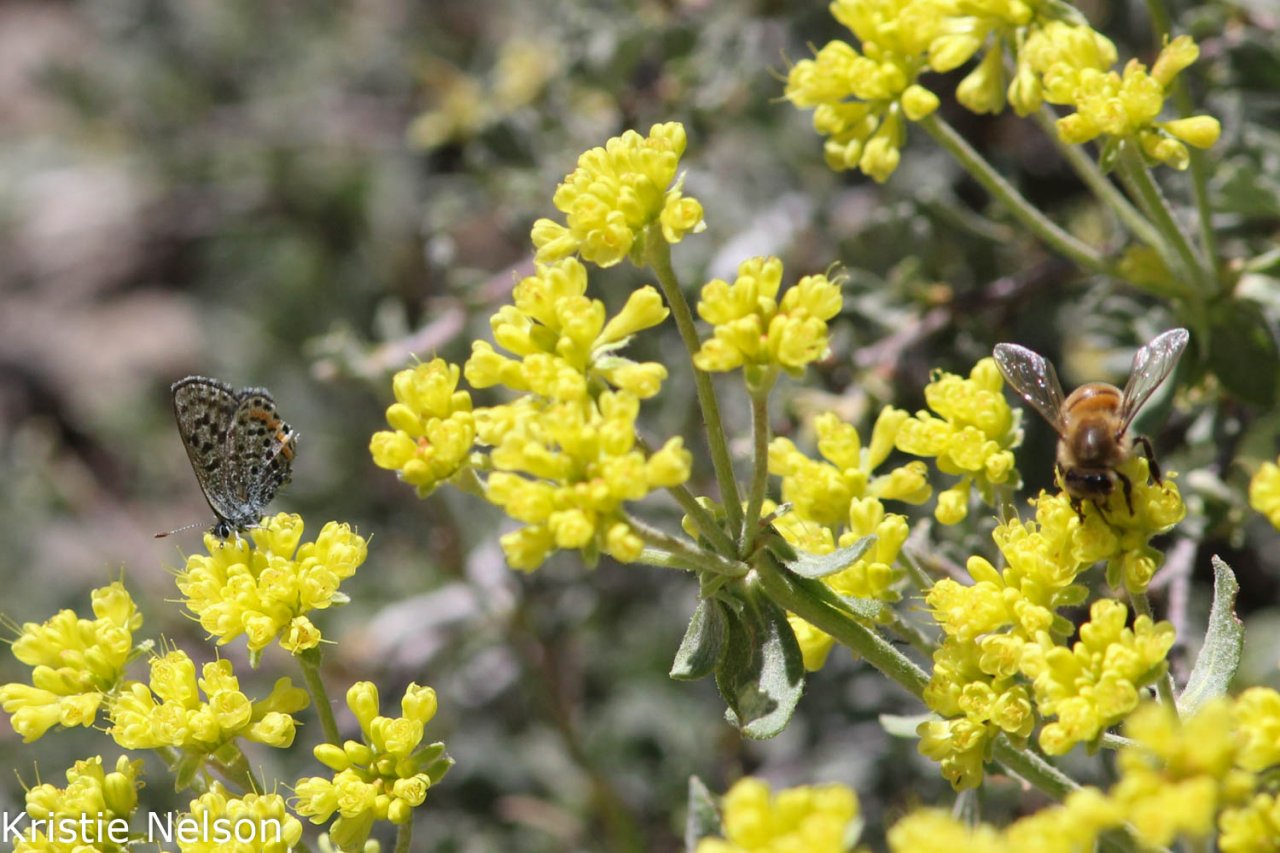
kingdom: Animalia
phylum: Arthropoda
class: Insecta
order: Lepidoptera
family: Lycaenidae
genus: Euphilotes
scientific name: Euphilotes battoides
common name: Glaucon Blue
